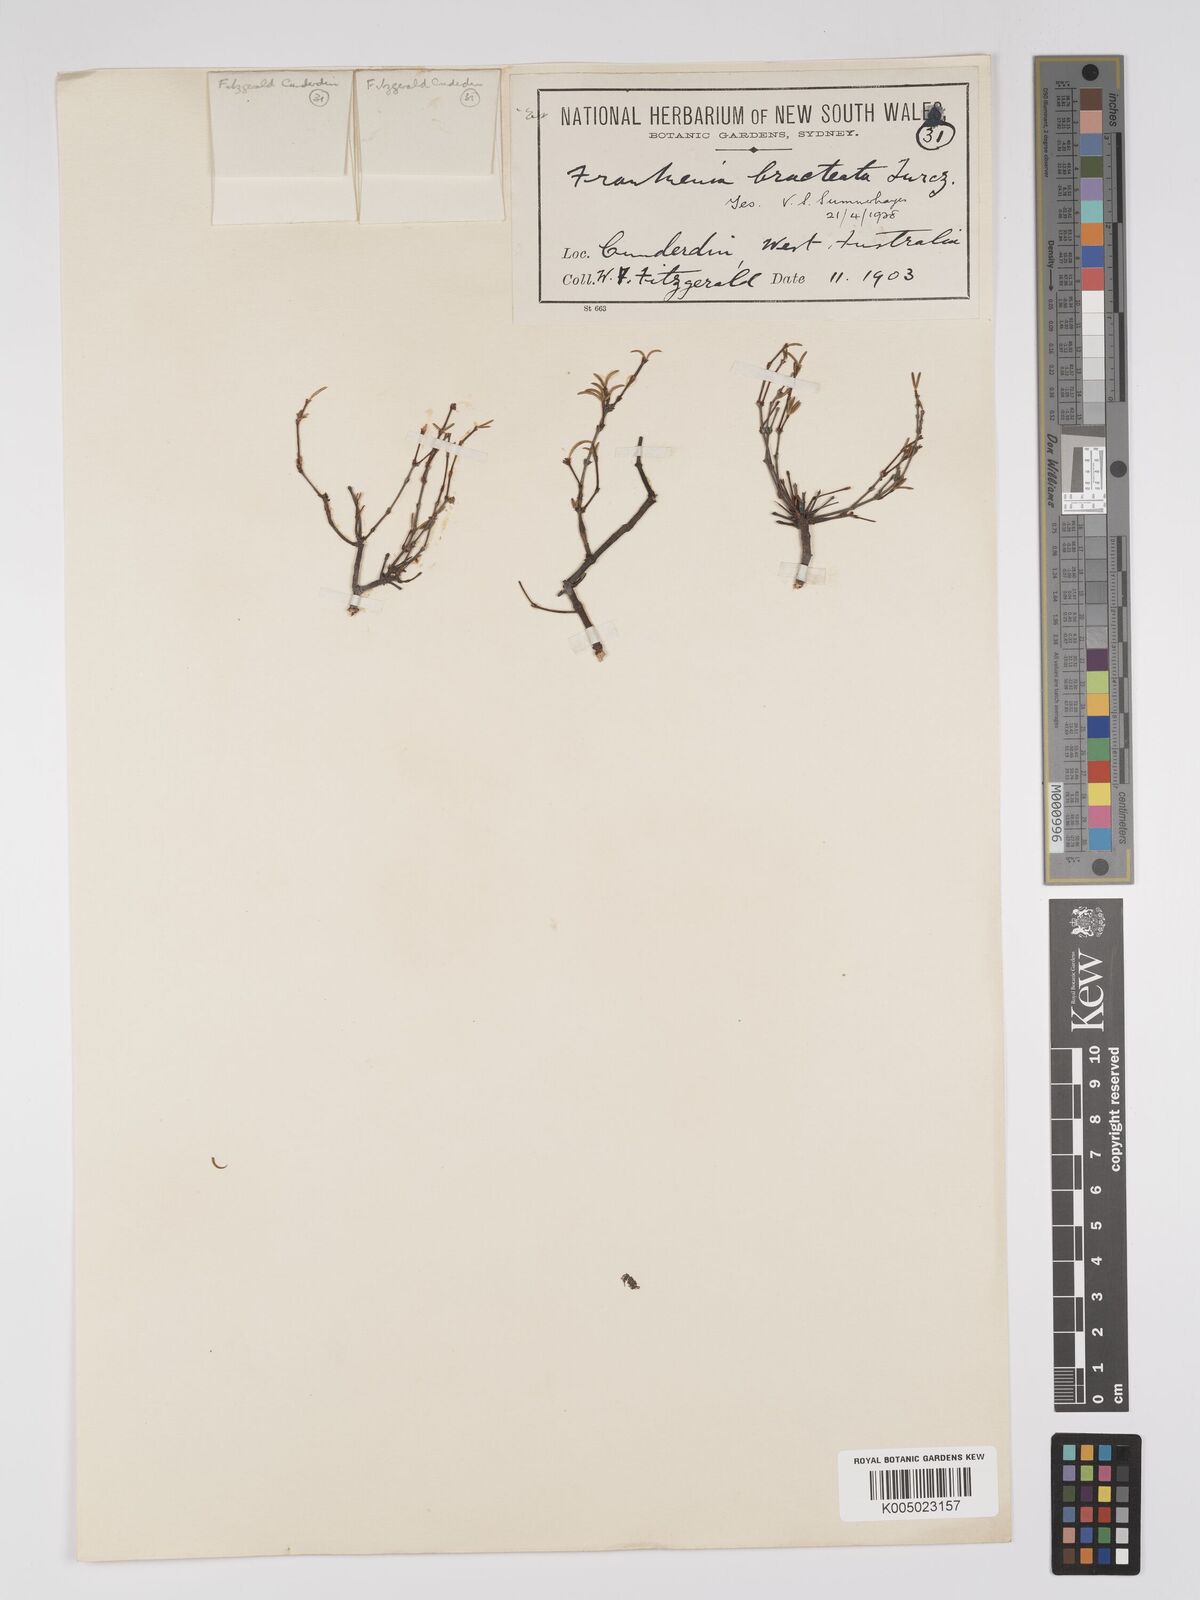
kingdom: Plantae
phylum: Tracheophyta
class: Magnoliopsida
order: Caryophyllales
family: Frankeniaceae
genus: Frankenia
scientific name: Frankenia bracteata
